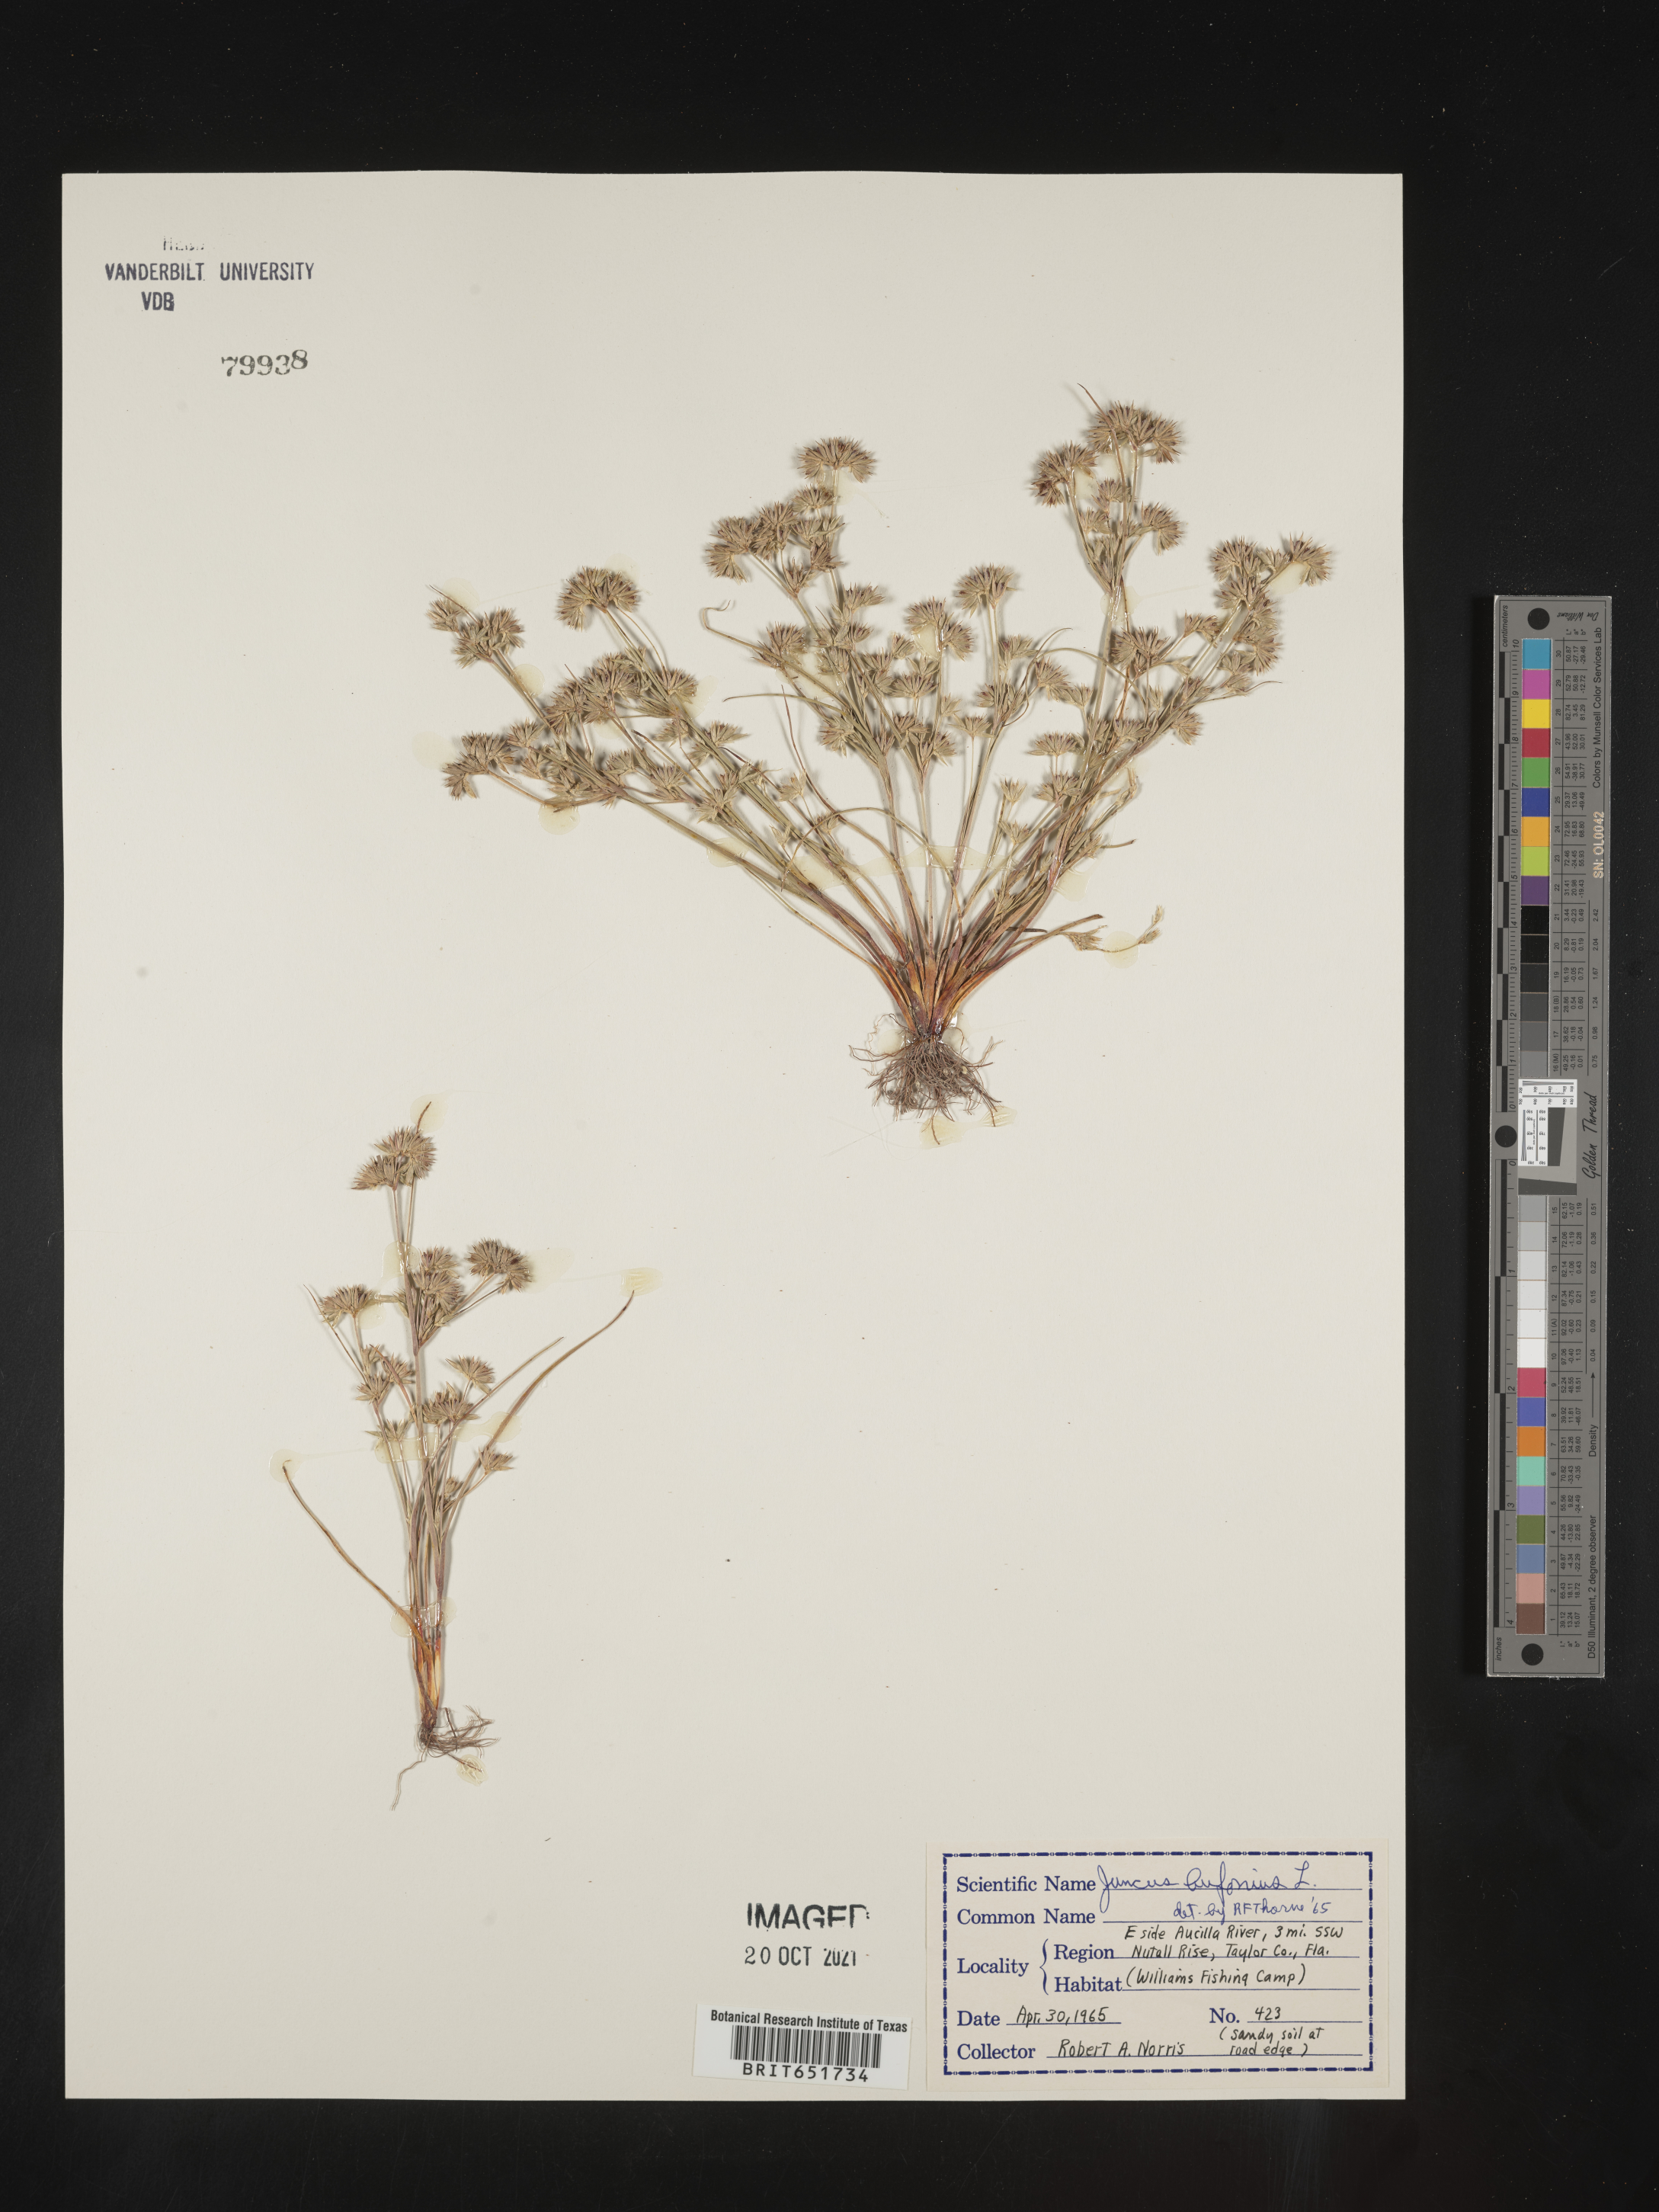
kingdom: Plantae
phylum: Tracheophyta
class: Liliopsida
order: Poales
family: Juncaceae
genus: Juncus
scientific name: Juncus bufonius
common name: Toad rush
